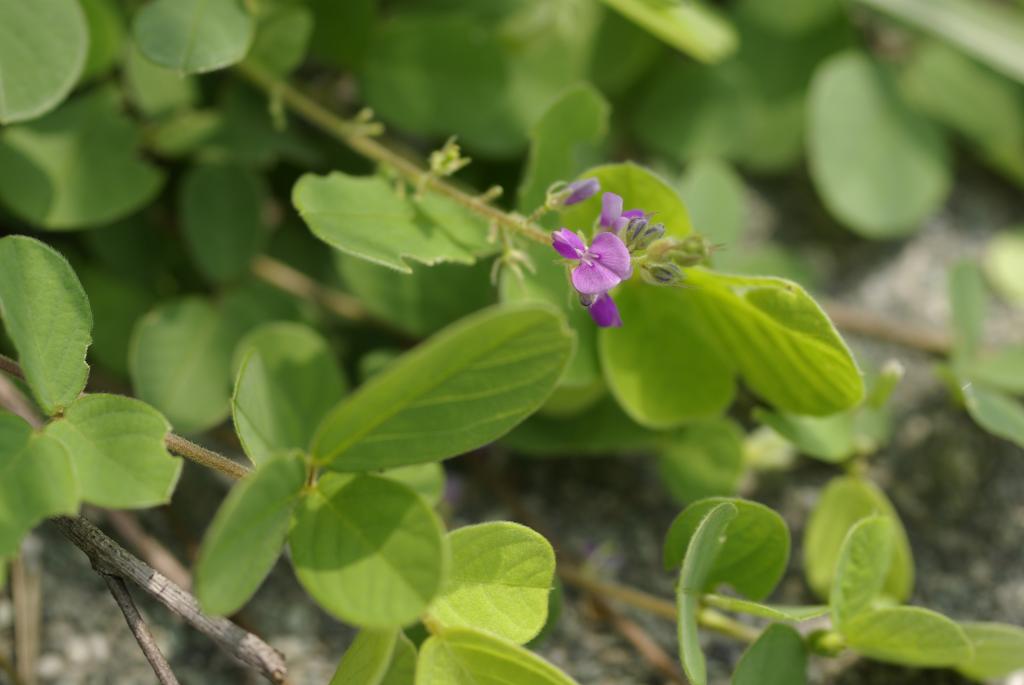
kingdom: Plantae
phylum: Tracheophyta
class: Magnoliopsida
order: Fabales
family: Fabaceae
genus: Pycnospora
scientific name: Pycnospora lutescens
